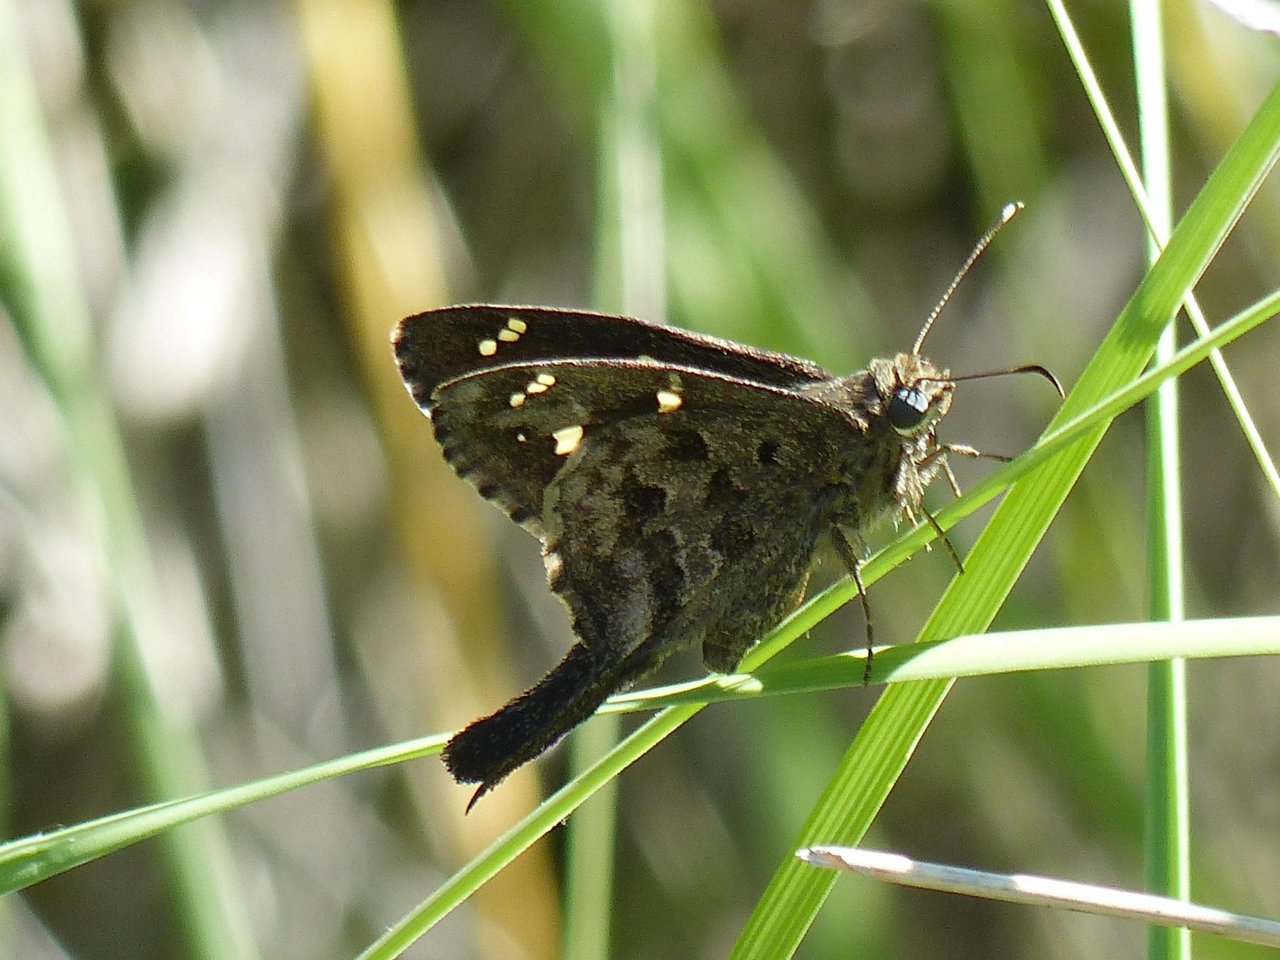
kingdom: Animalia
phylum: Arthropoda
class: Insecta
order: Lepidoptera
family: Hesperiidae
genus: Urbanus
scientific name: Urbanus dorantes
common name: Dorantes Longtail
